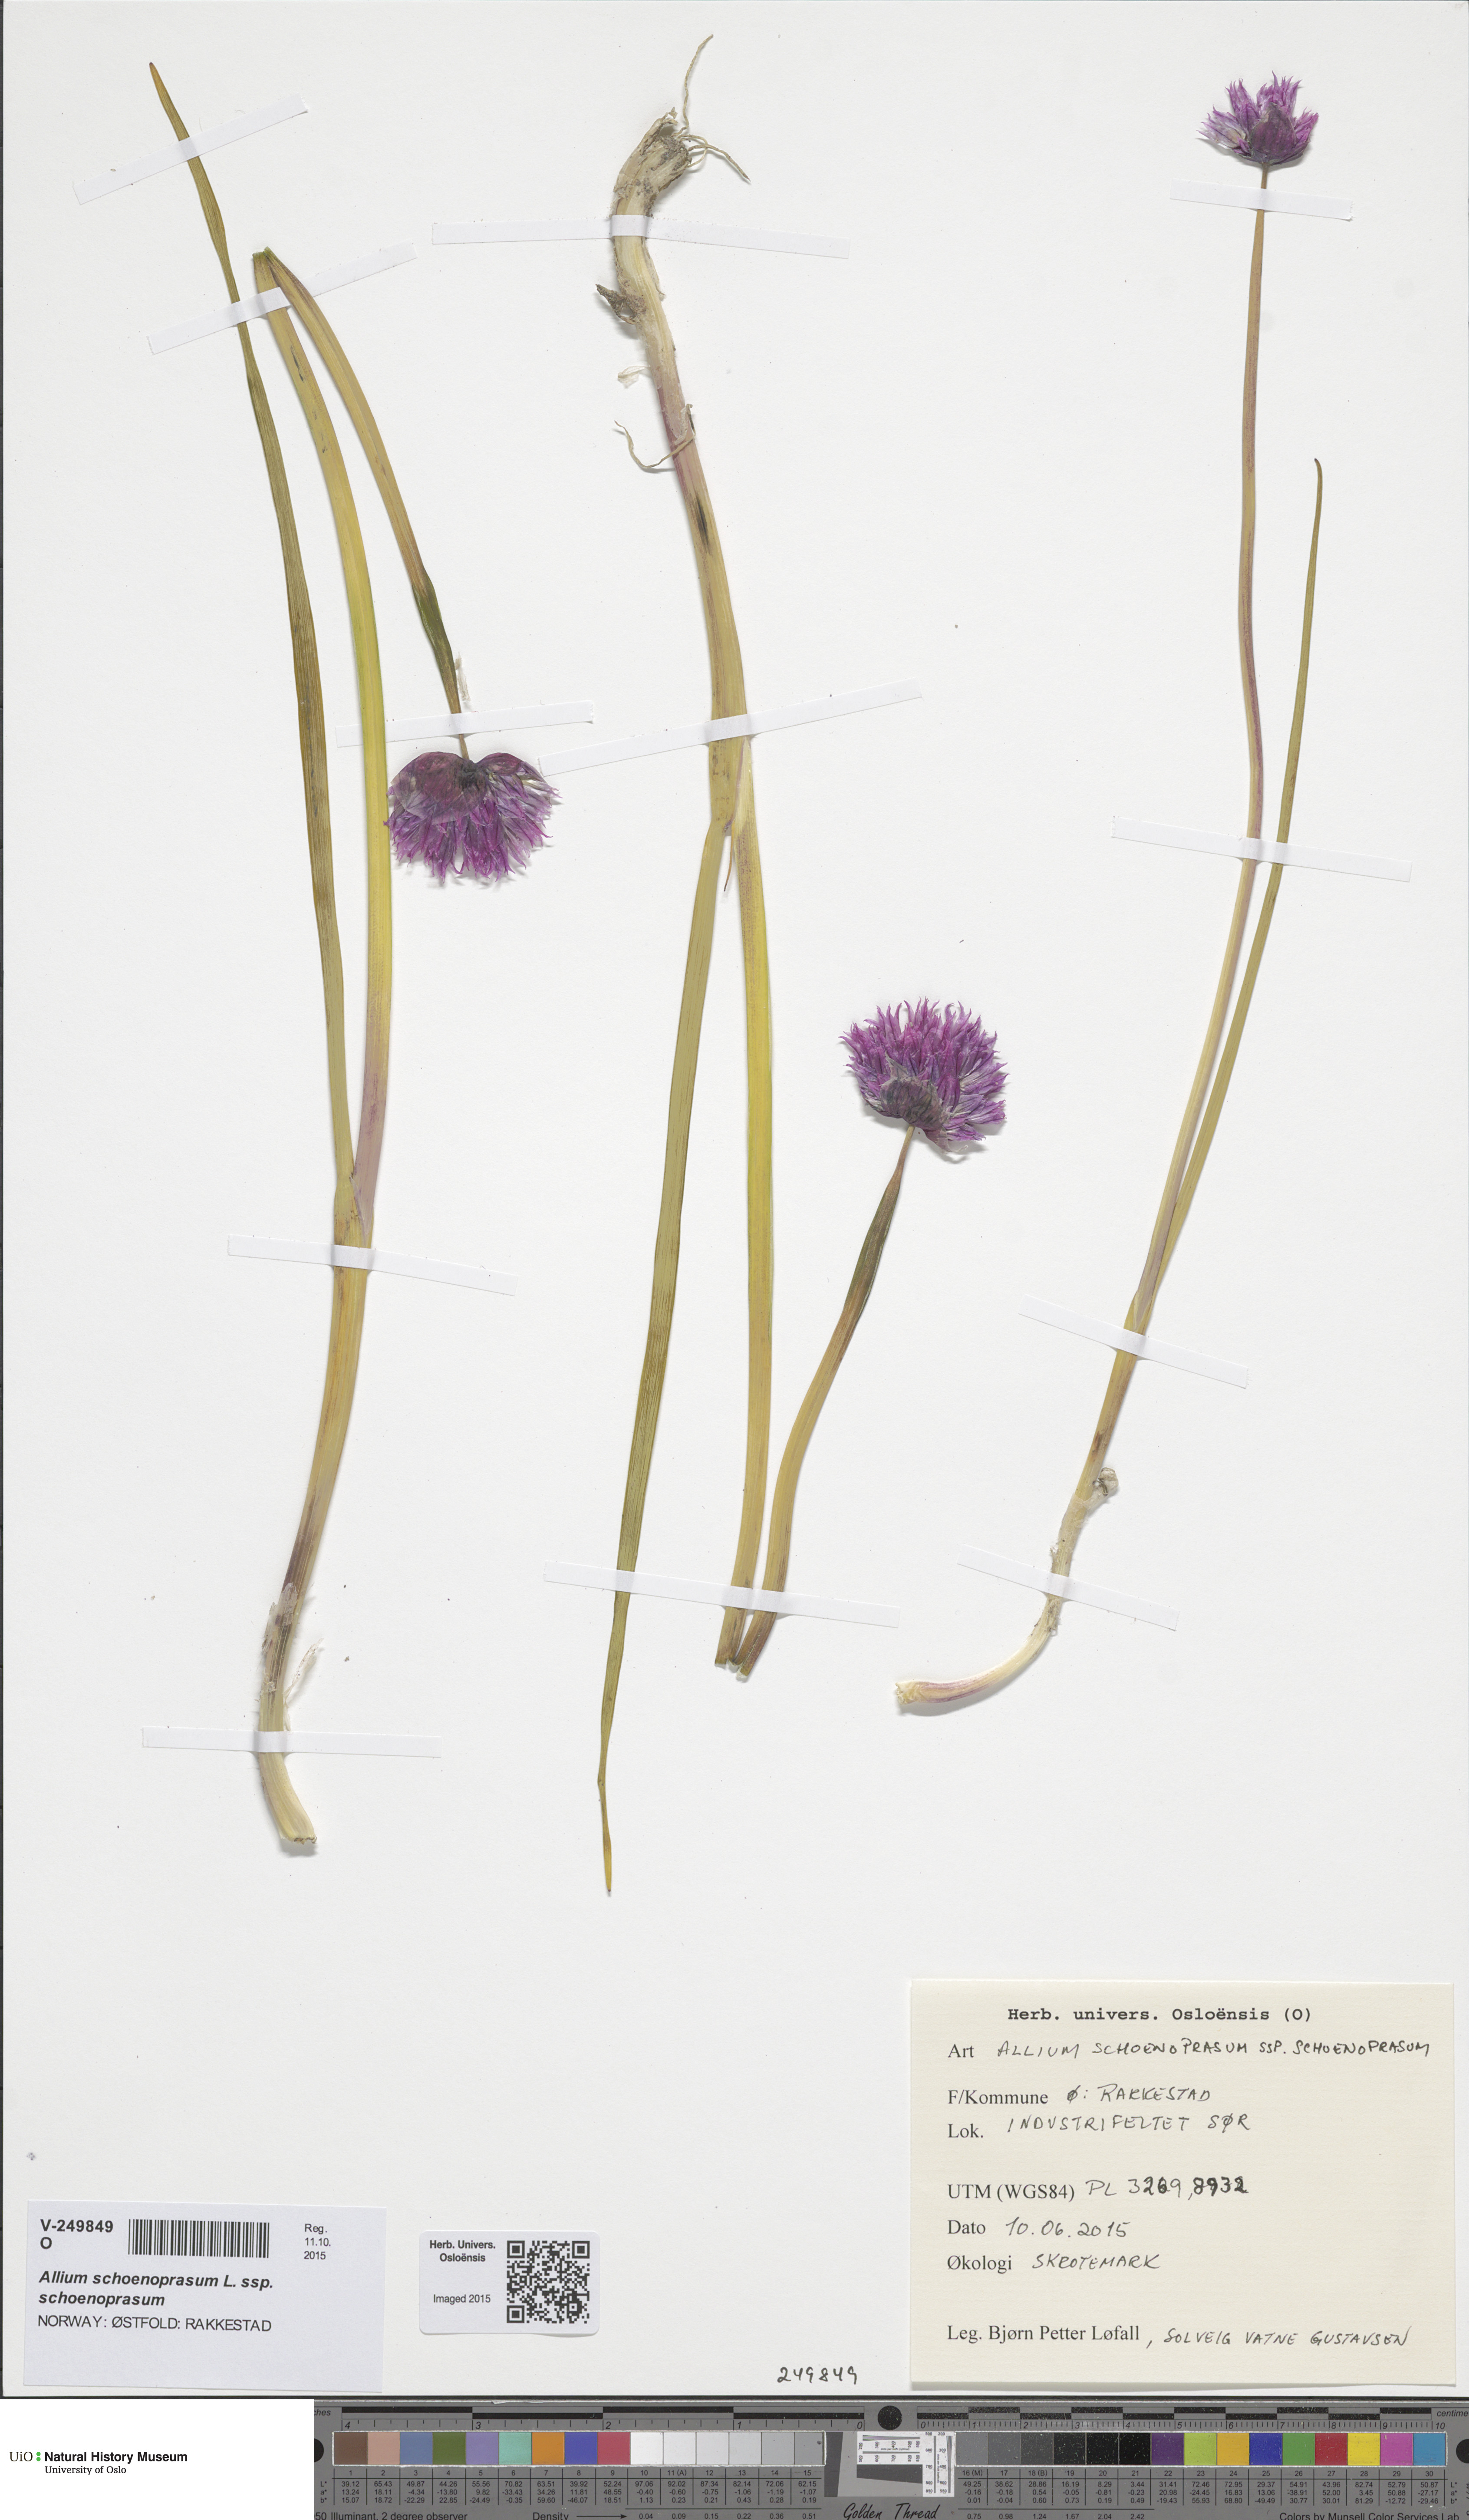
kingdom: Plantae
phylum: Tracheophyta
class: Liliopsida
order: Asparagales
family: Amaryllidaceae
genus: Allium
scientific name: Allium schoenoprasum
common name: Chives
